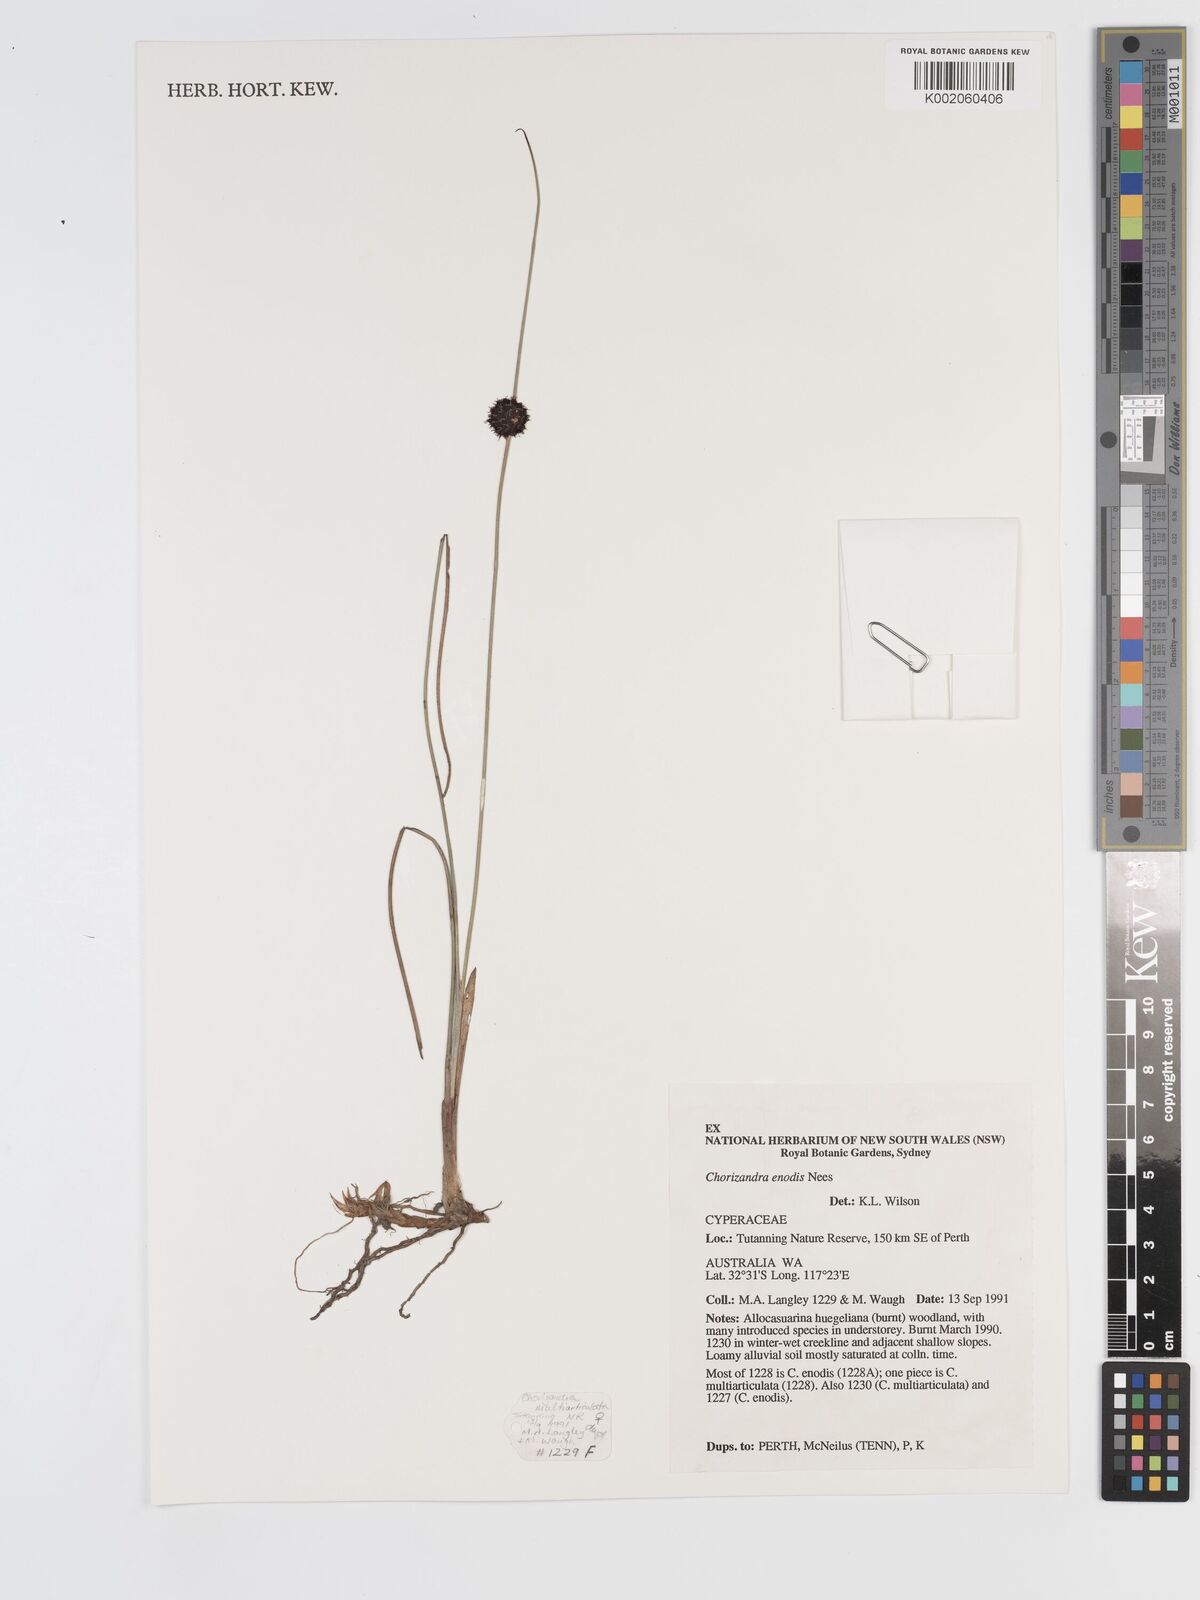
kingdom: Plantae
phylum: Tracheophyta
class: Liliopsida
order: Poales
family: Cyperaceae
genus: Chorizandra
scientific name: Chorizandra enodis
